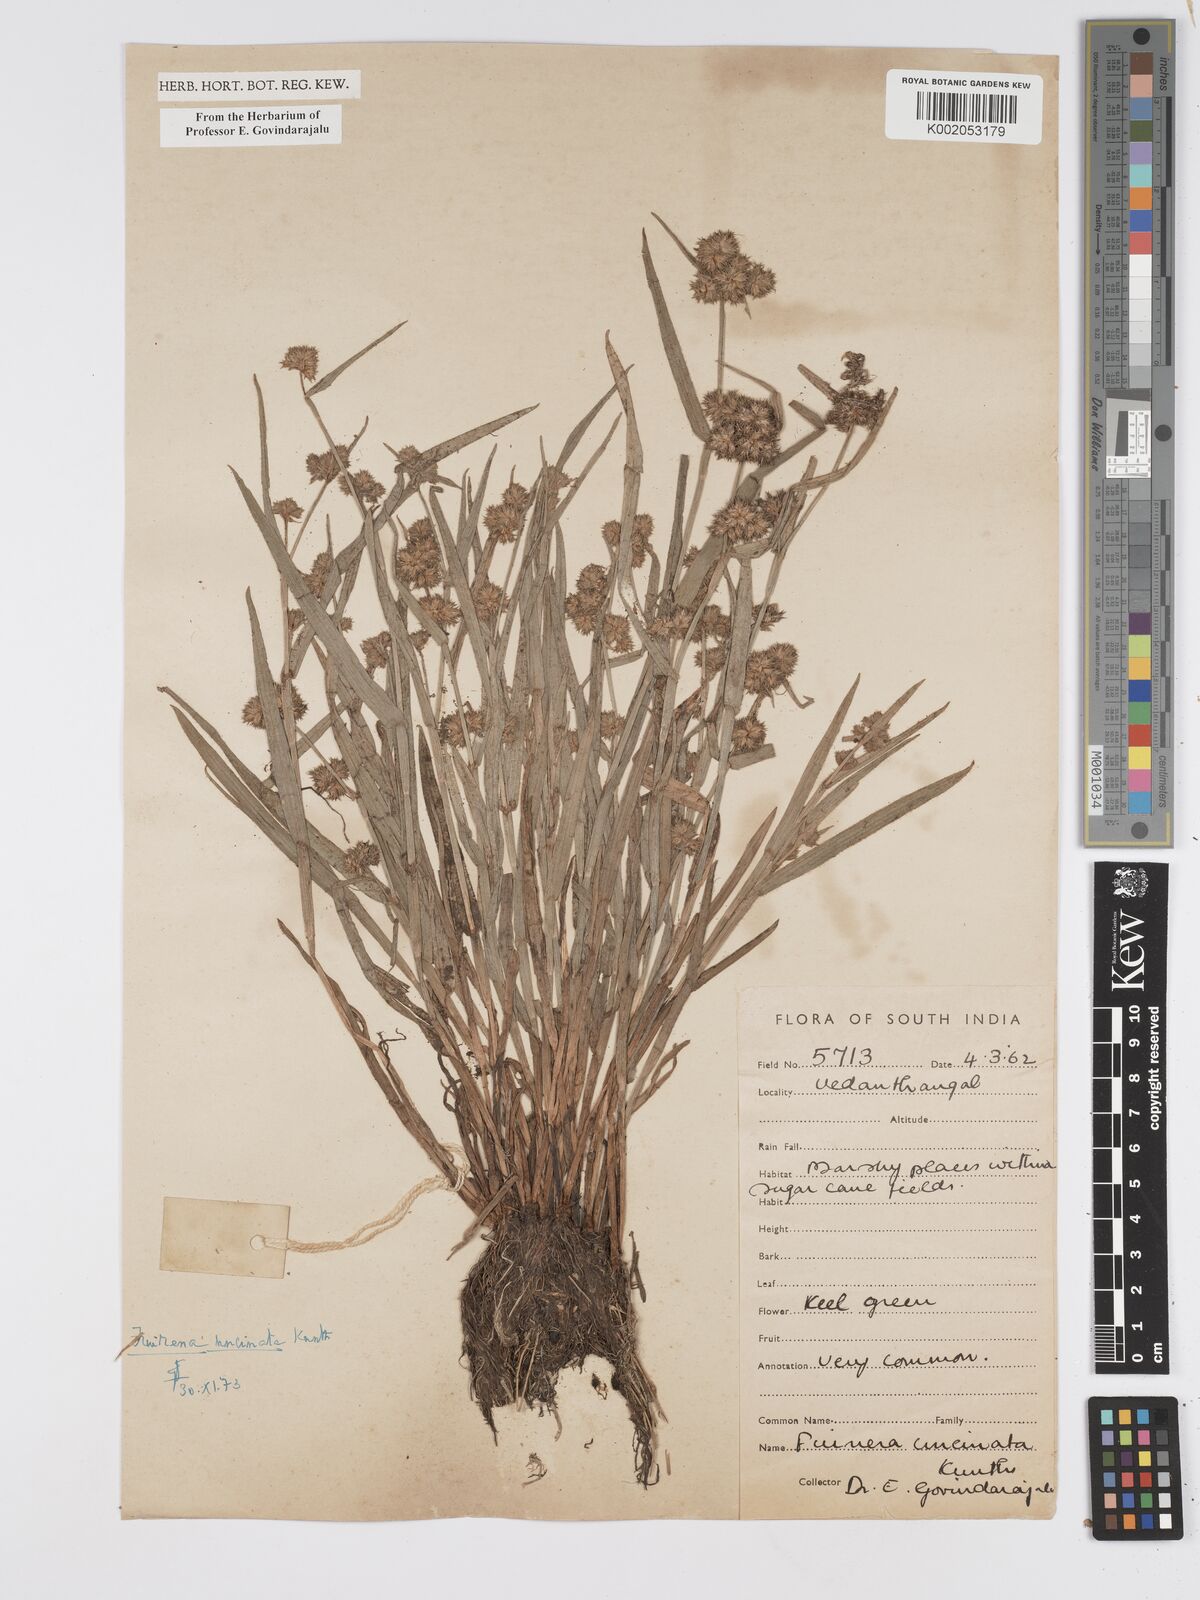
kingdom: Plantae
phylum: Tracheophyta
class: Liliopsida
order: Poales
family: Cyperaceae
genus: Fuirena
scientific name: Fuirena uncinata
